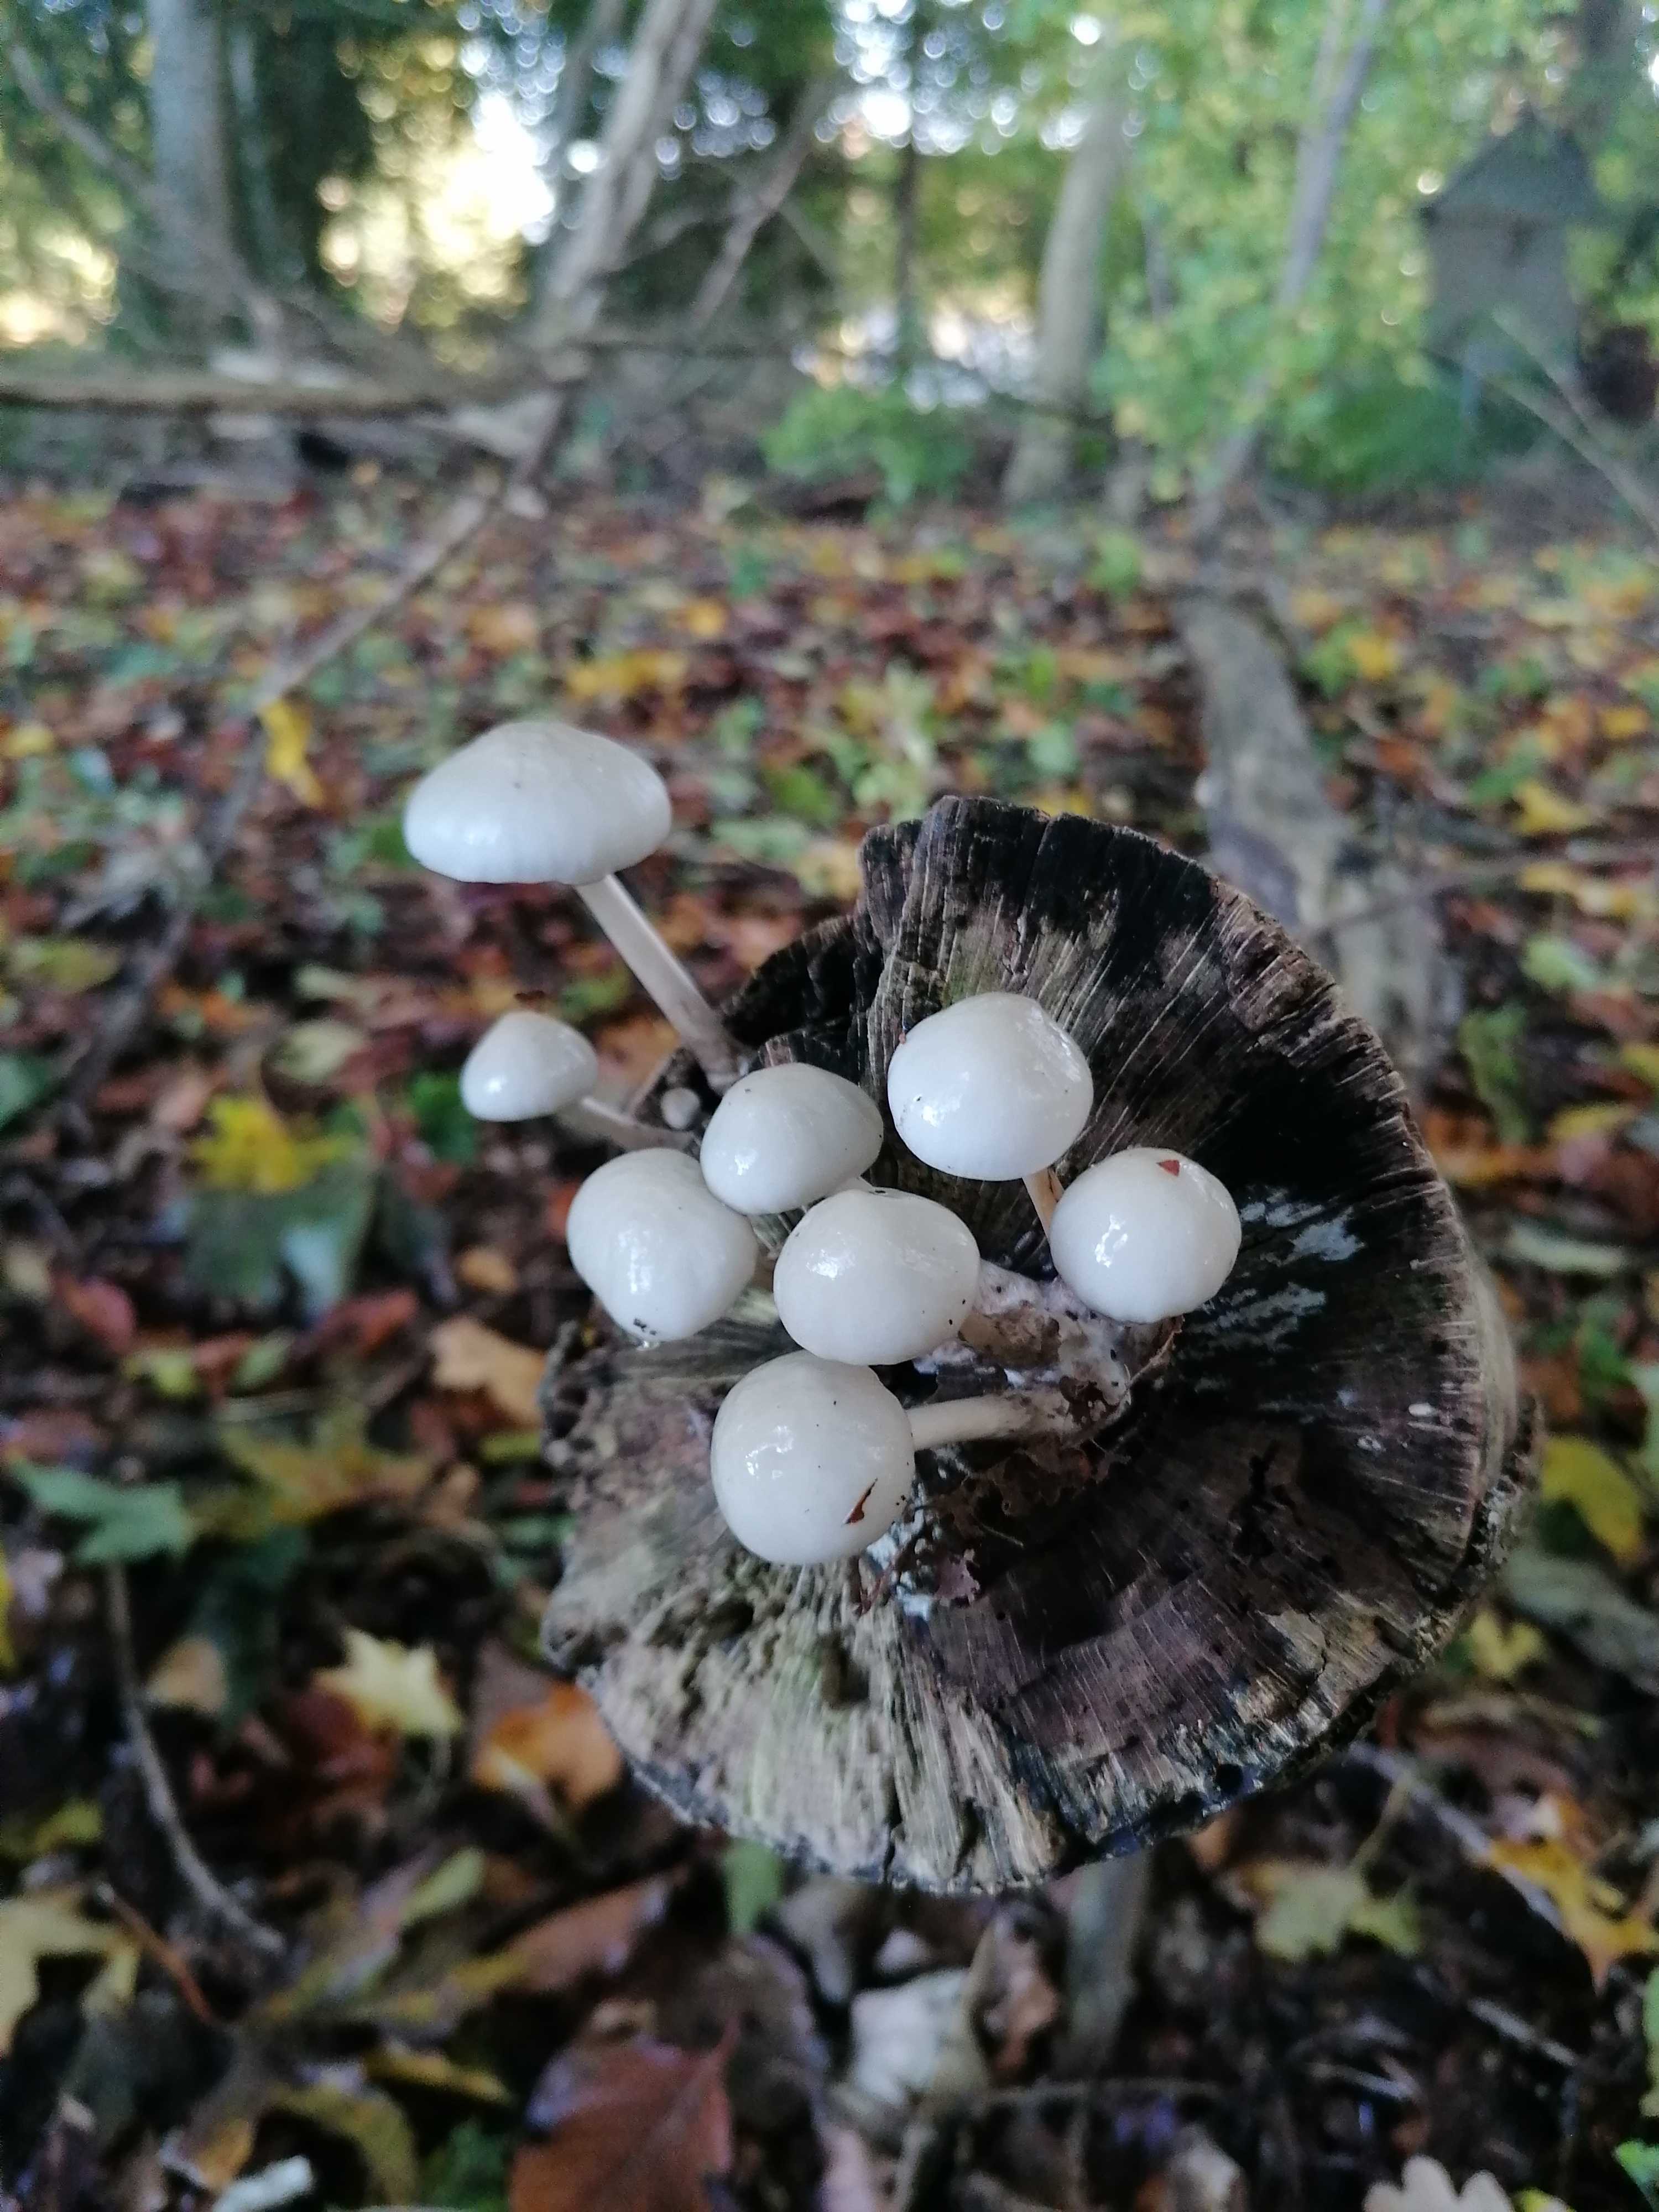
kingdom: Fungi
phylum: Basidiomycota
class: Agaricomycetes
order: Agaricales
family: Physalacriaceae
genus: Mucidula
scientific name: Mucidula mucida
